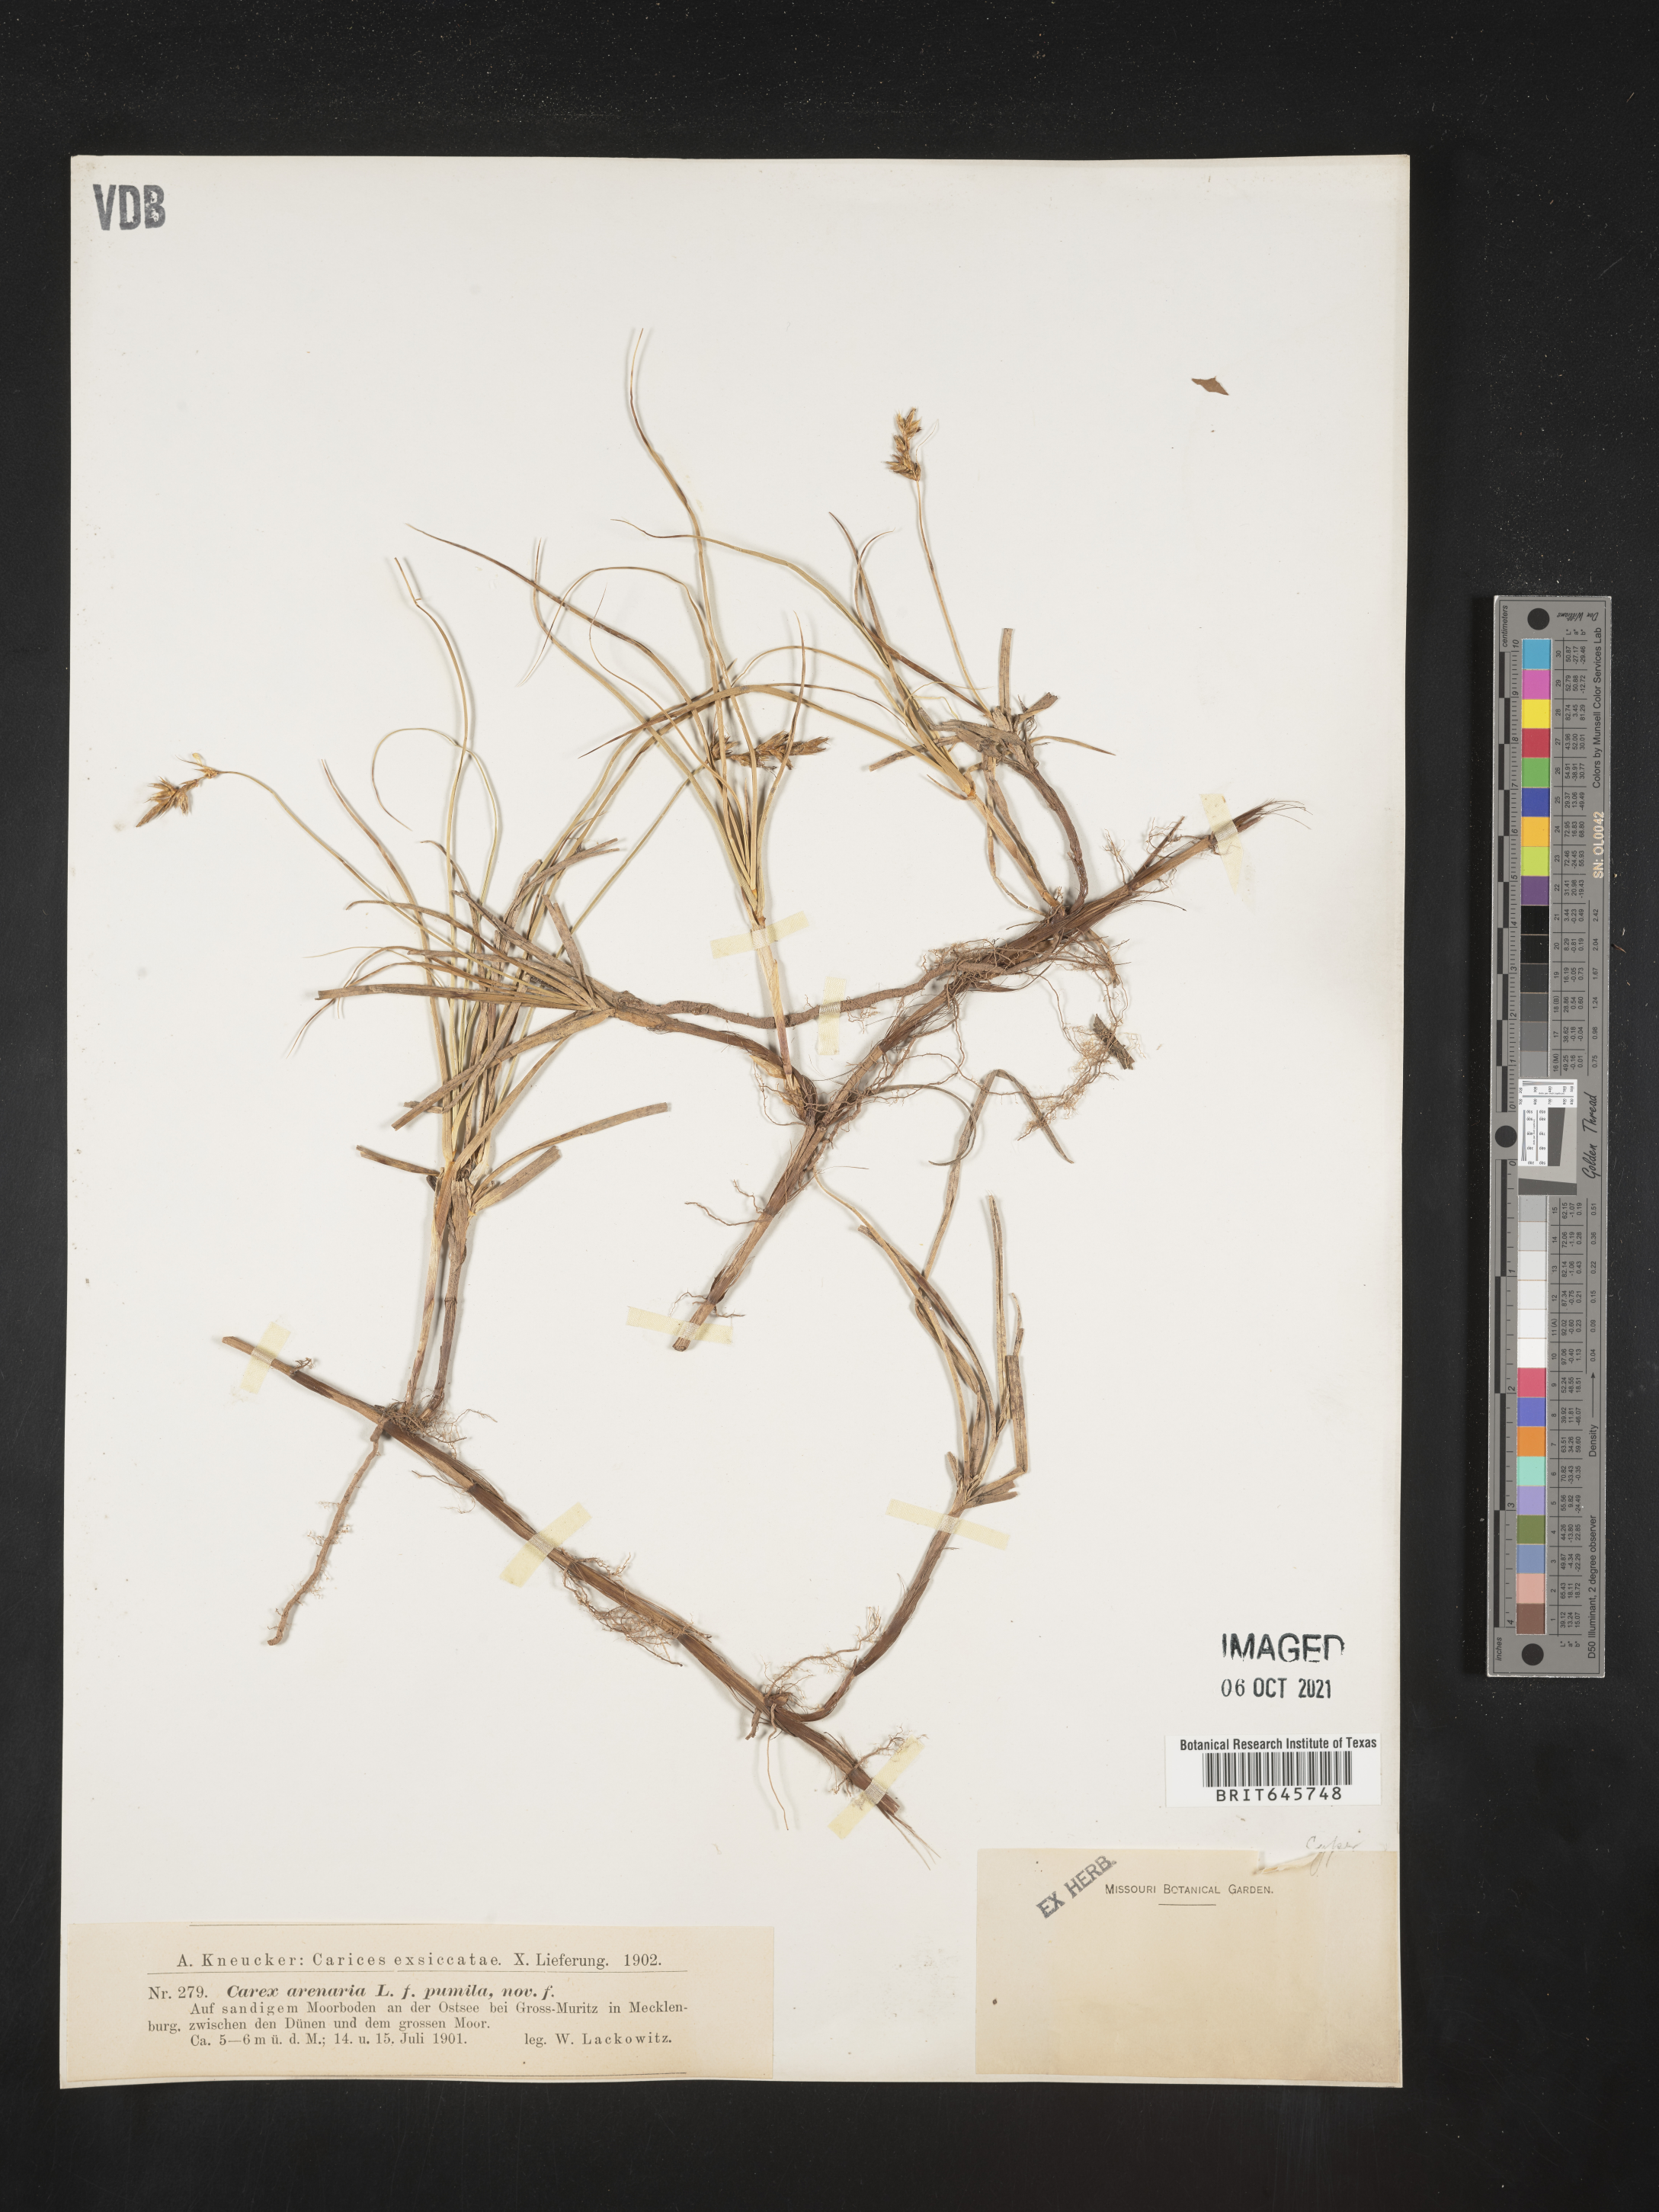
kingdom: Plantae
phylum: Tracheophyta
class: Liliopsida
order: Poales
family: Cyperaceae
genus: Carex
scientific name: Carex
